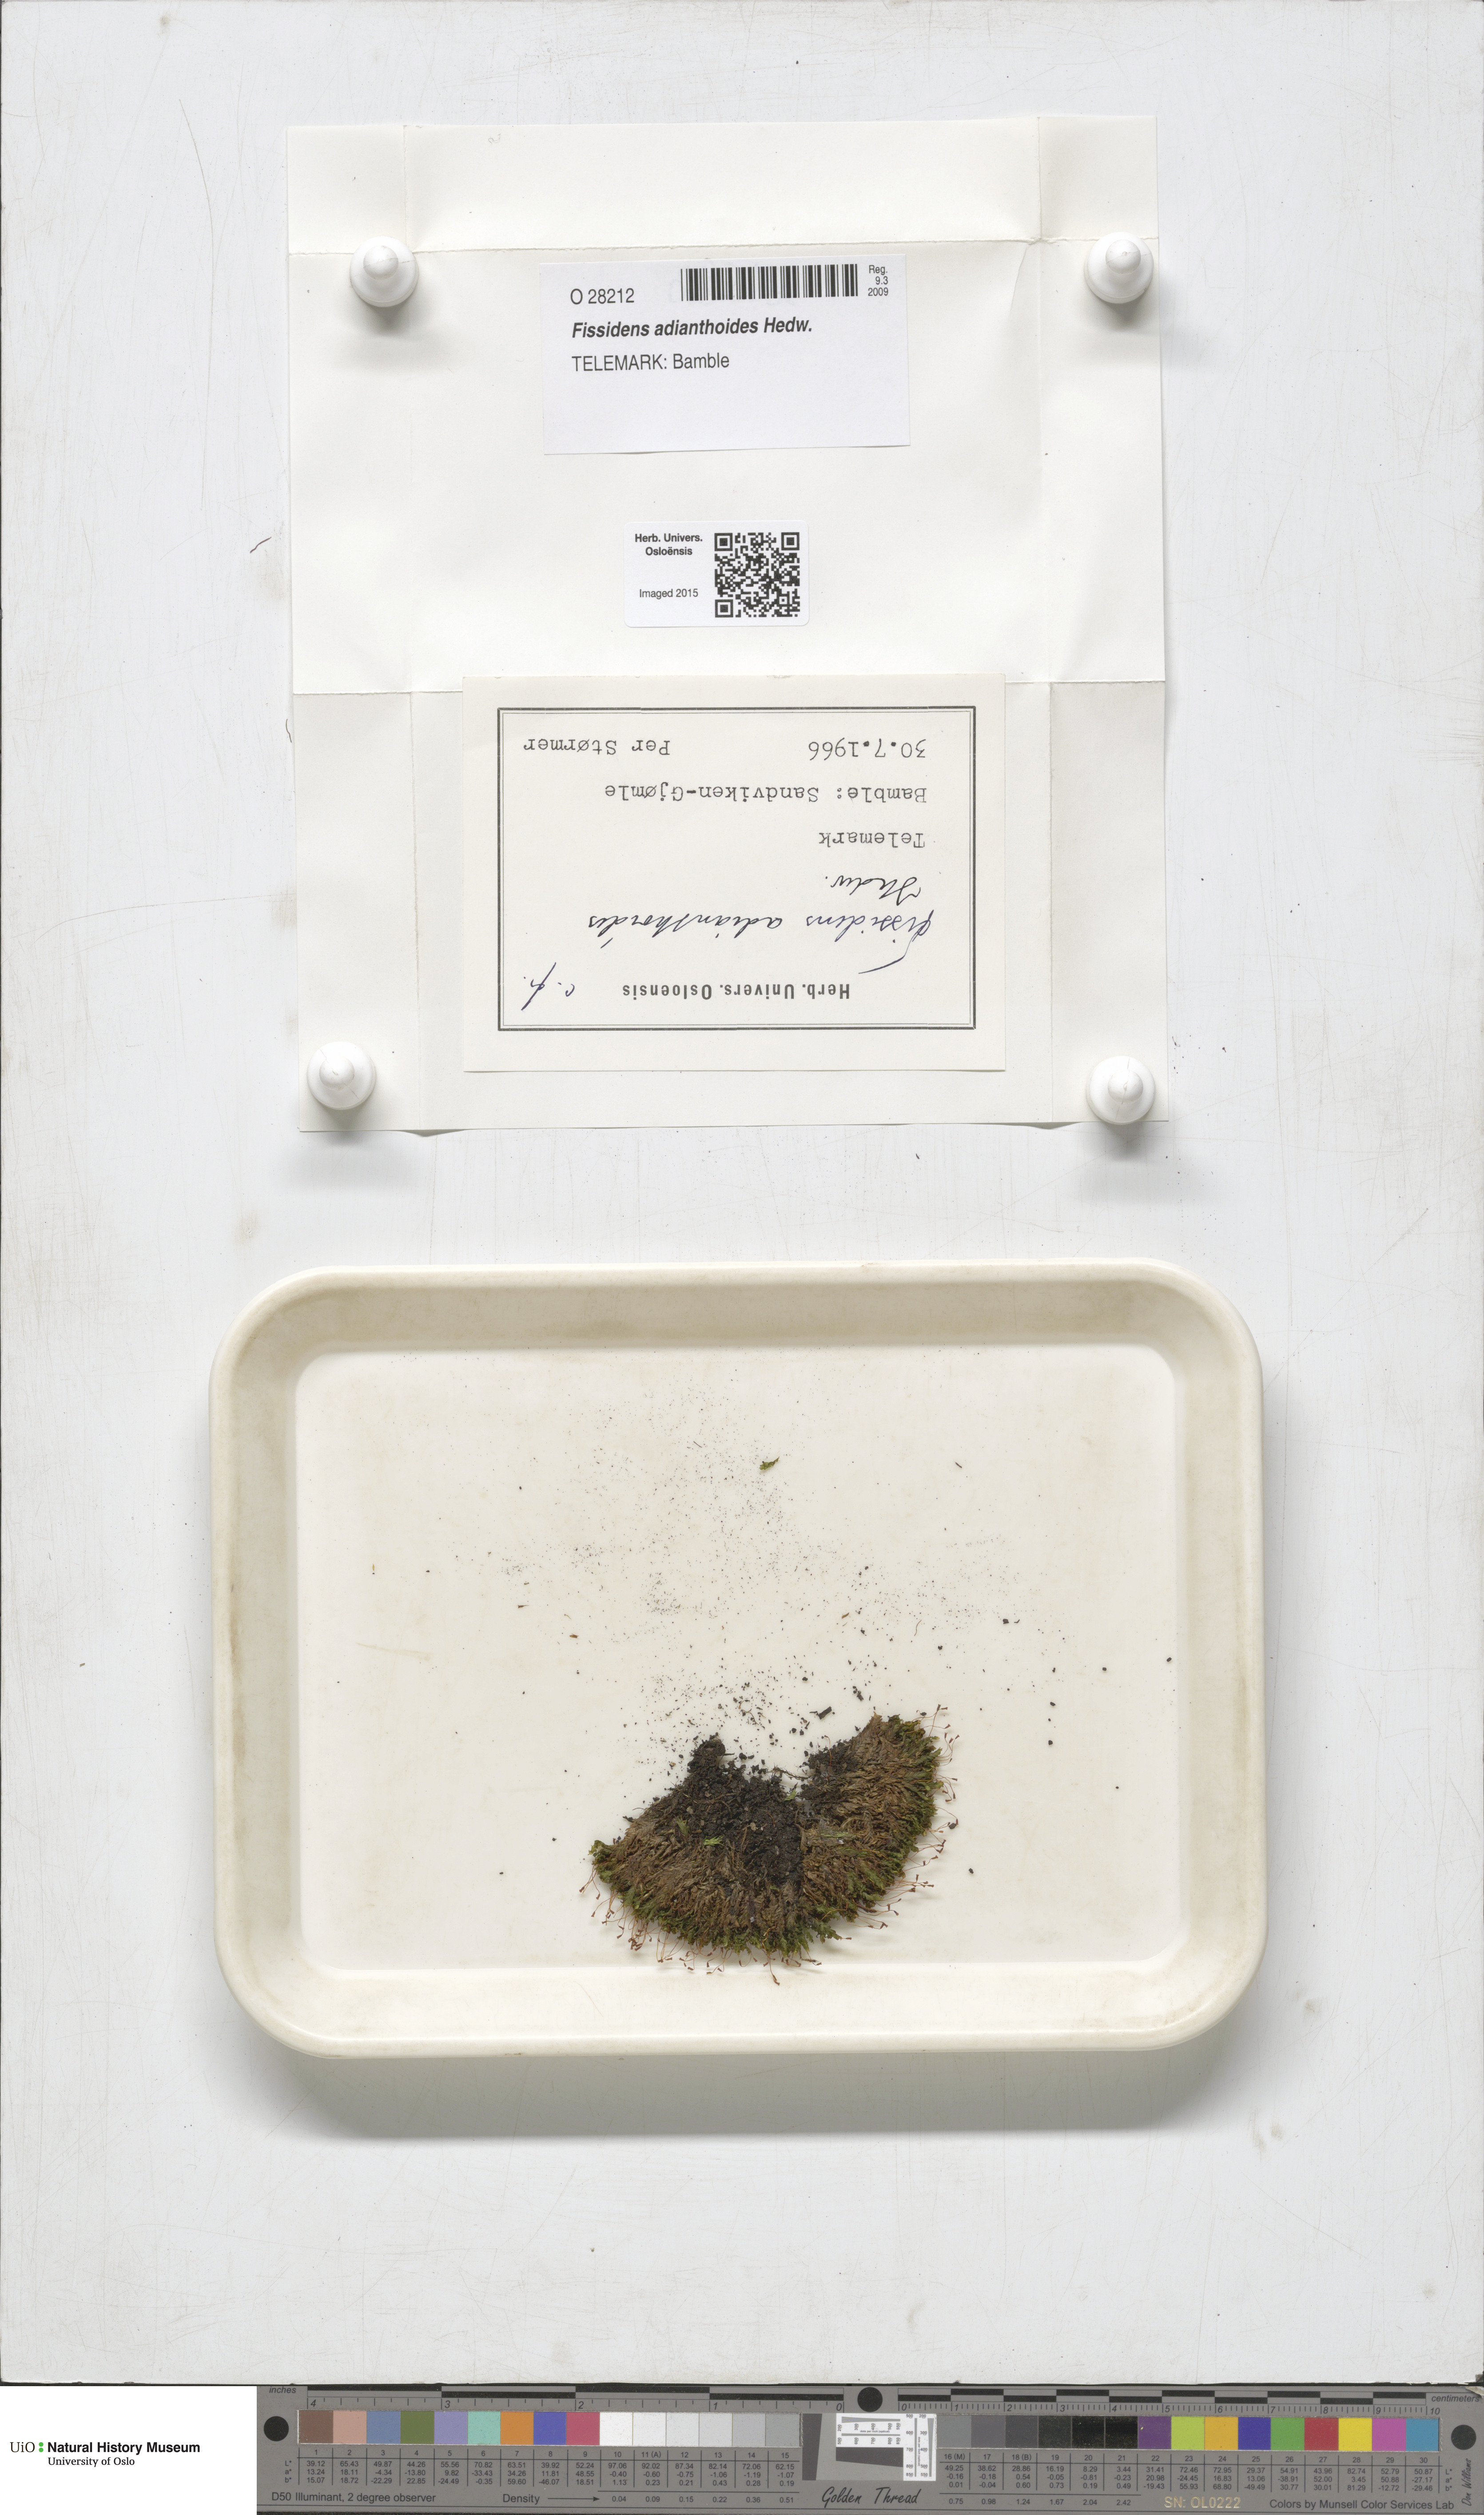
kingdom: Plantae
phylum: Bryophyta
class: Bryopsida
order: Dicranales
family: Fissidentaceae
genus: Fissidens
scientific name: Fissidens adianthoides
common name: Maidenhair pocket moss
